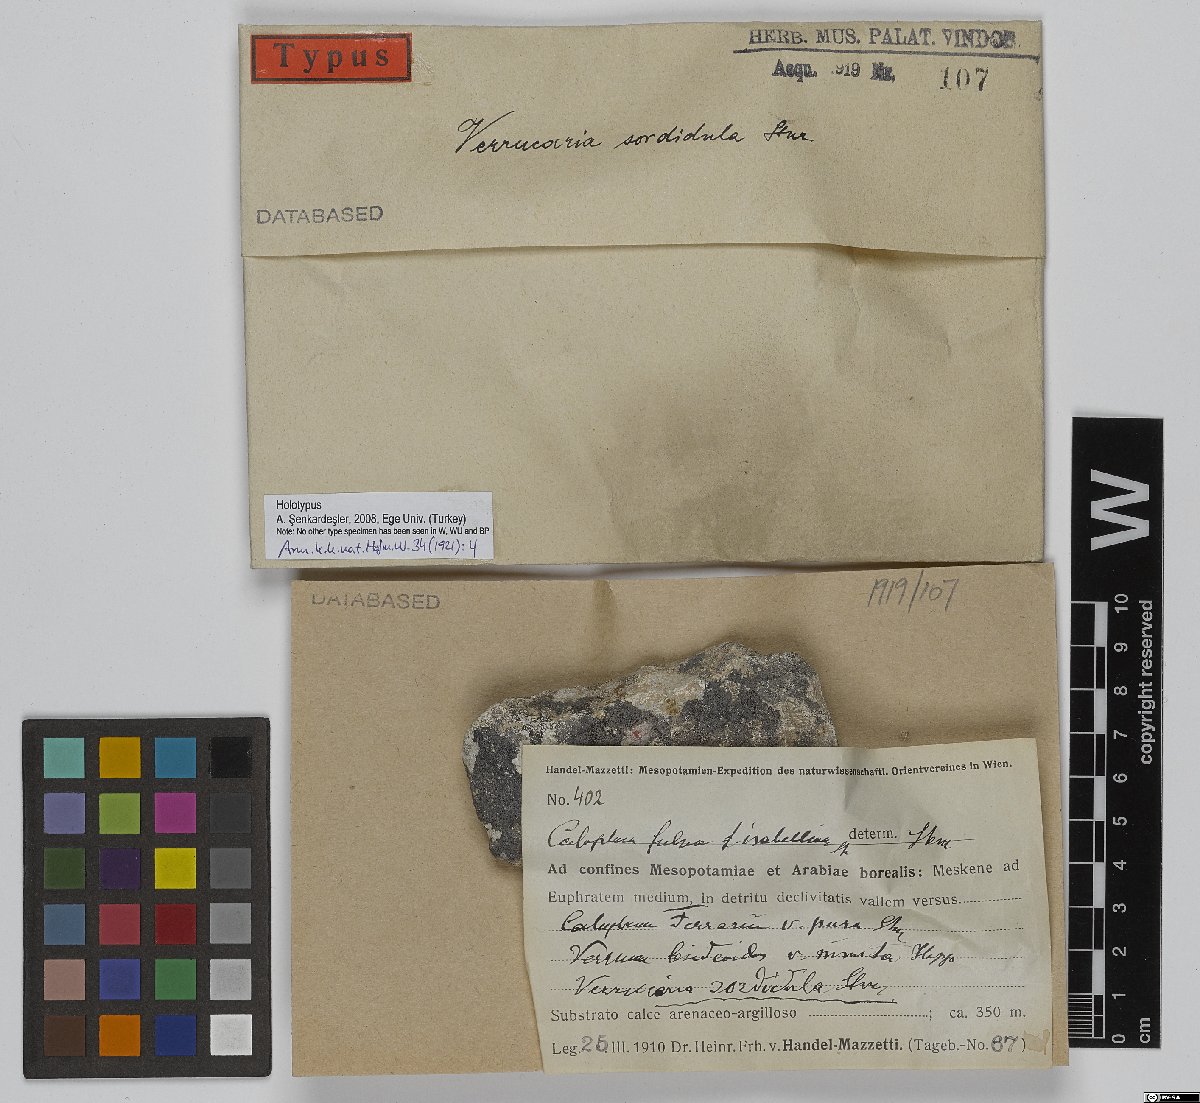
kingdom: Fungi
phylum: Ascomycota
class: Eurotiomycetes
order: Verrucariales
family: Verrucariaceae
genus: Verrucaria
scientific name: Verrucaria sordida
